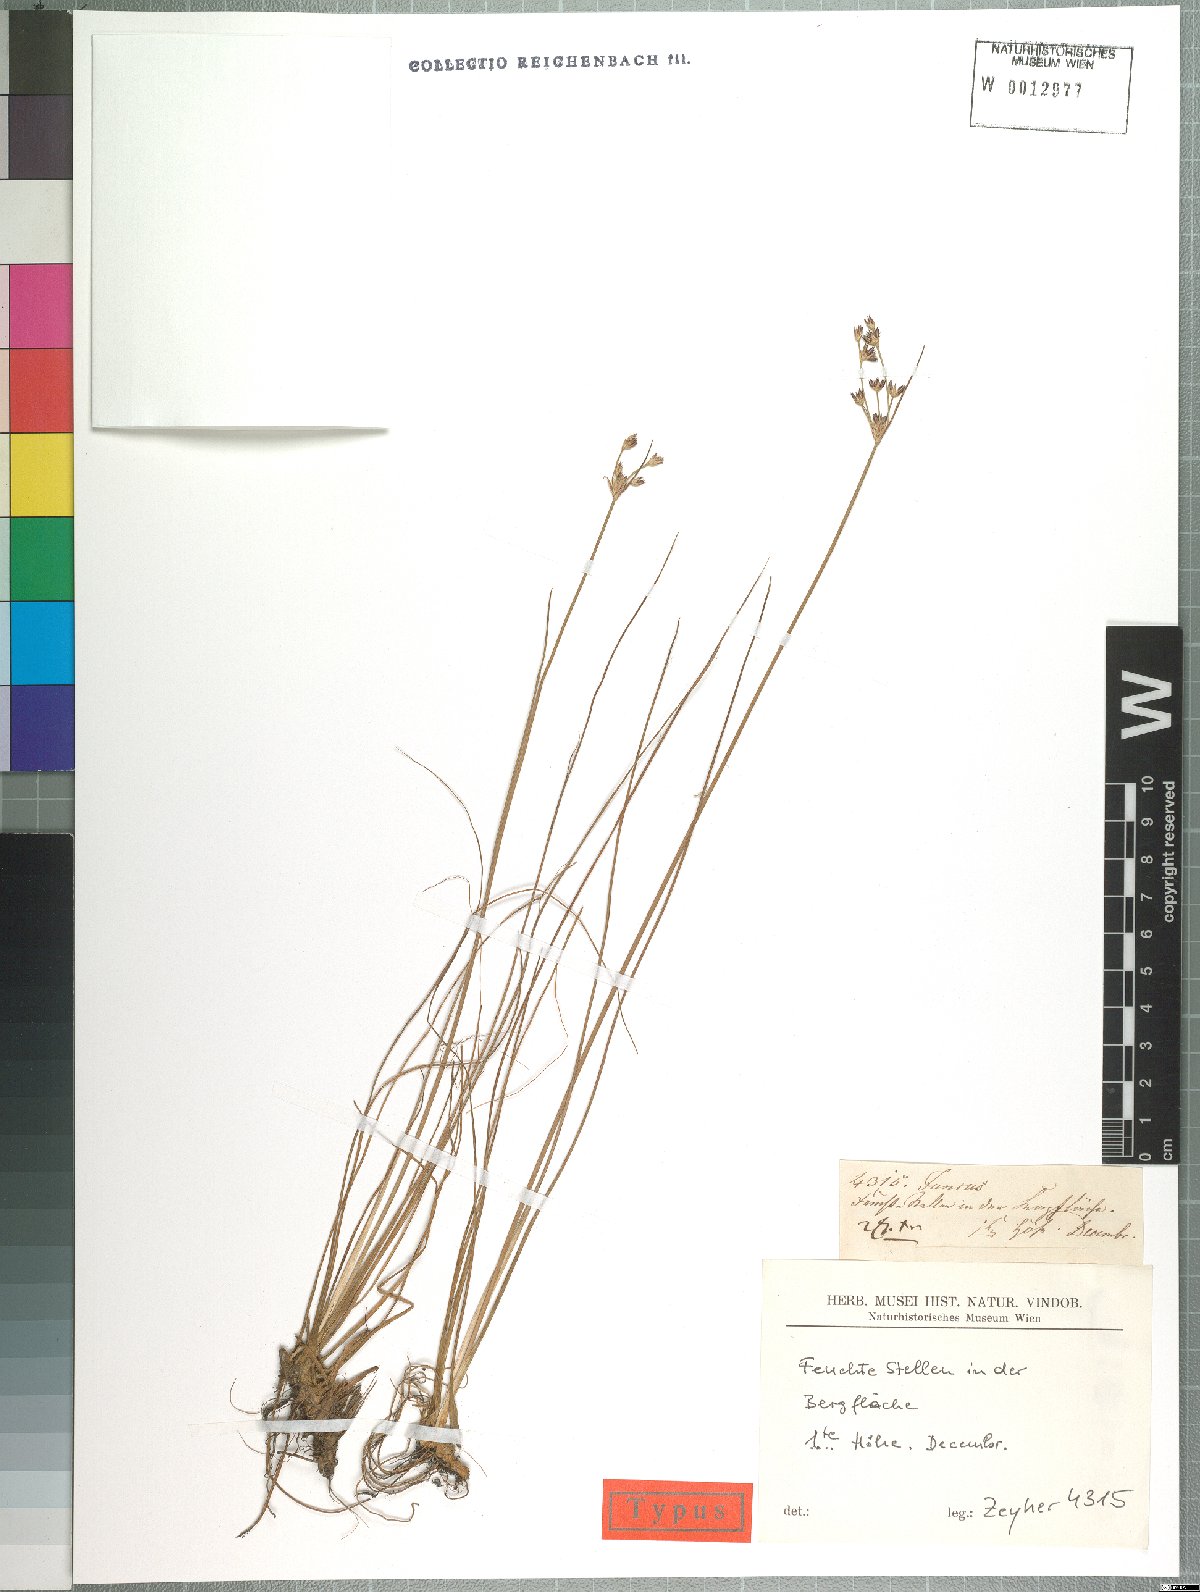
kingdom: Plantae
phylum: Tracheophyta
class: Liliopsida
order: Poales
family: Juncaceae
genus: Juncus
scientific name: Juncus
